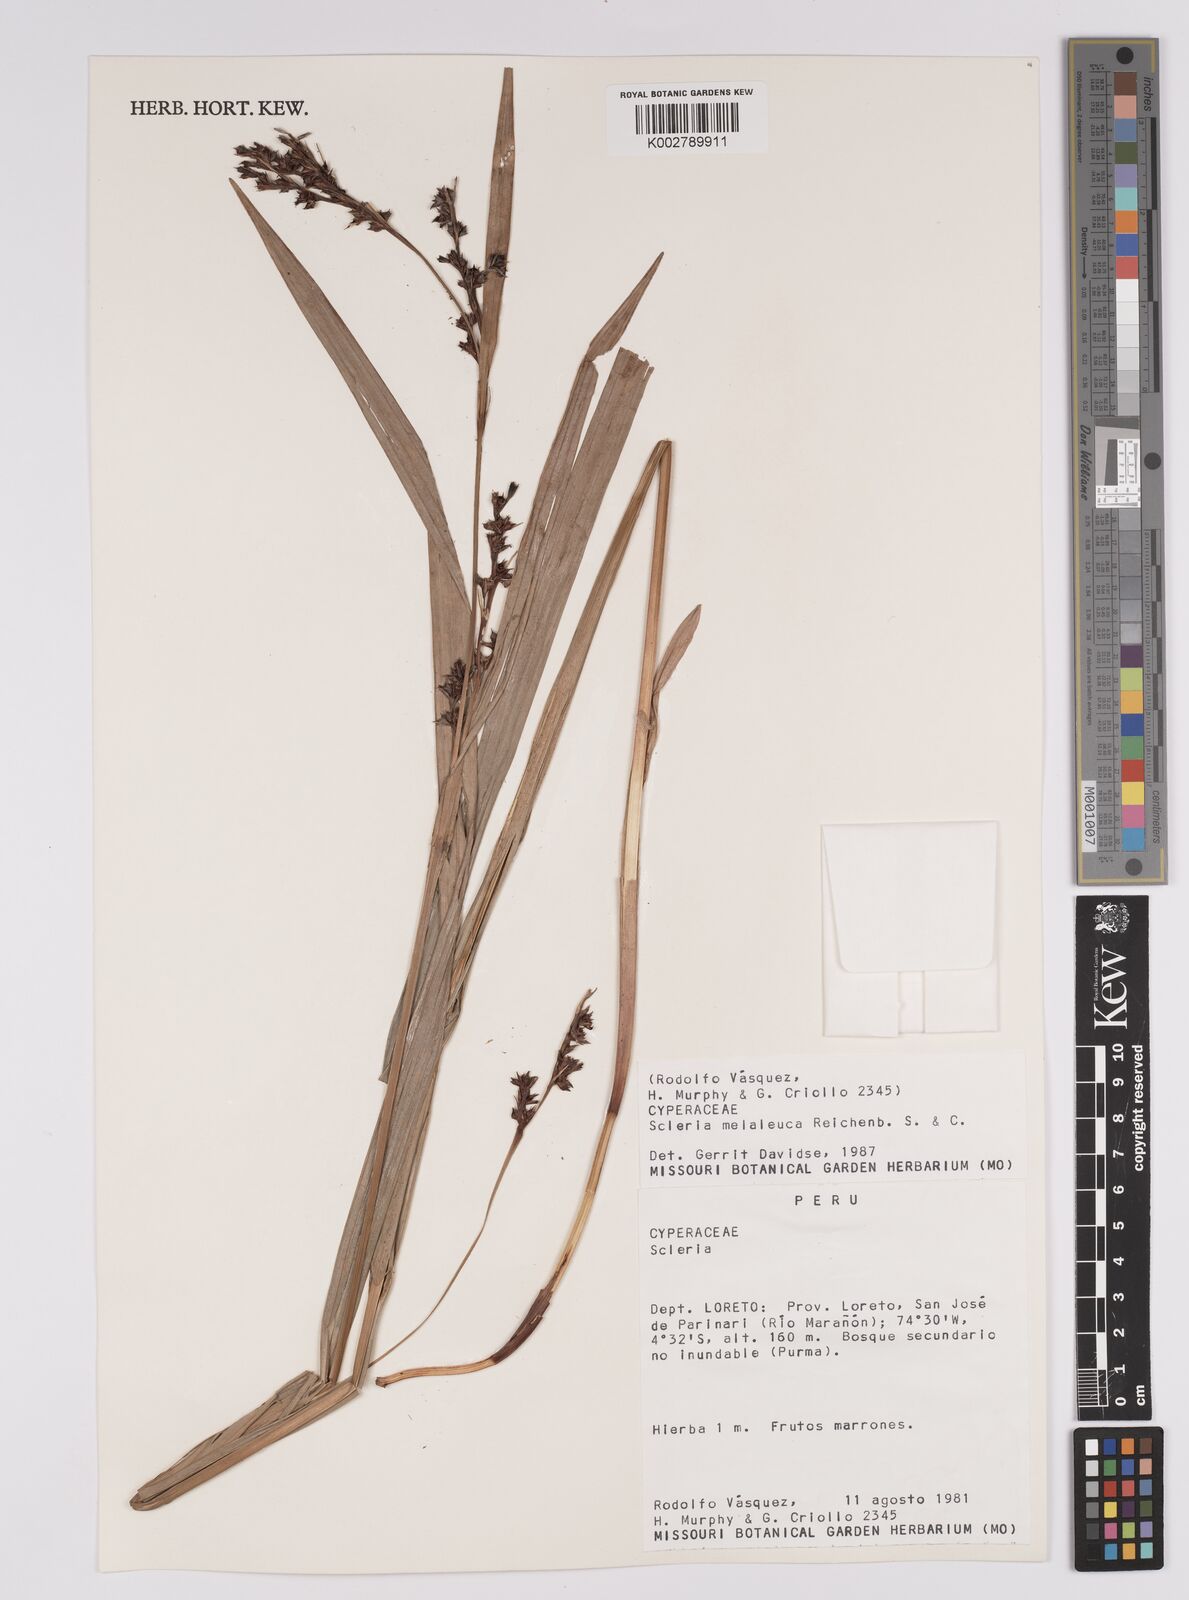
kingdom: Plantae
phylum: Tracheophyta
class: Liliopsida
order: Poales
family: Cyperaceae
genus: Scleria
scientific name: Scleria gaertneri
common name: Cortadera blanca
